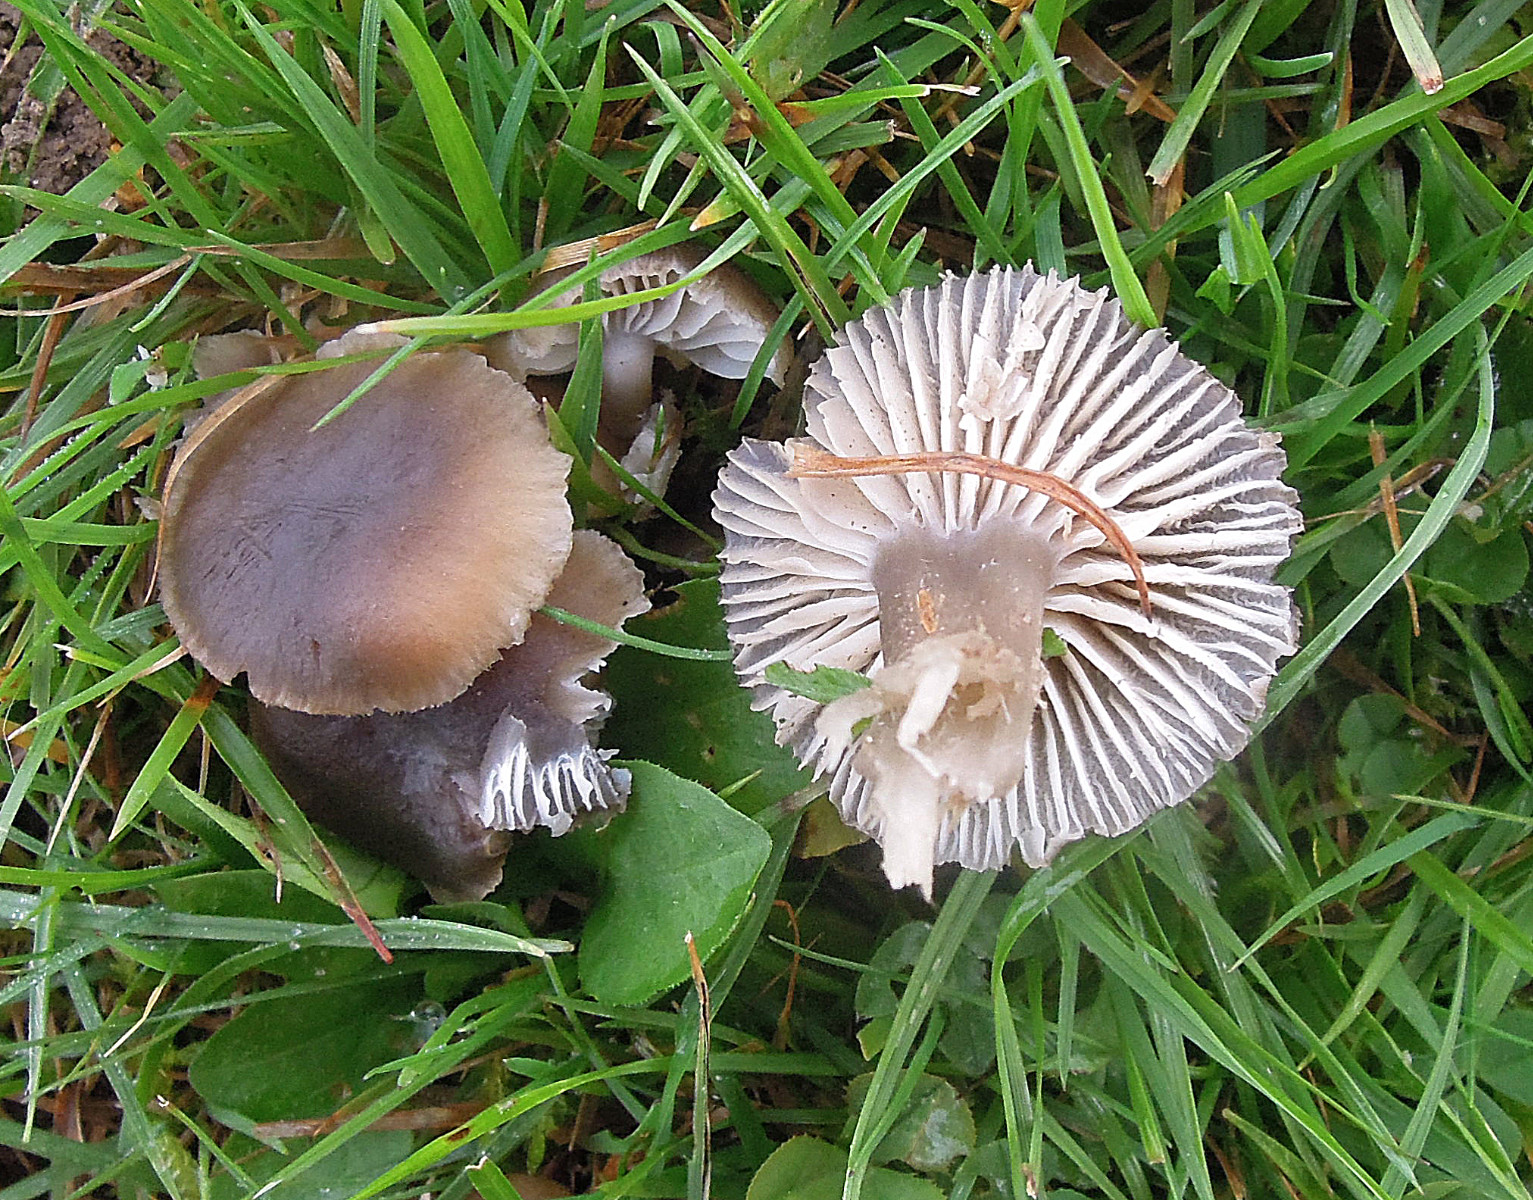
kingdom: Fungi
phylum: Basidiomycota
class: Agaricomycetes
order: Agaricales
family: Clavariaceae
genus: Camarophyllopsis
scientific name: Camarophyllopsis schulzeri
